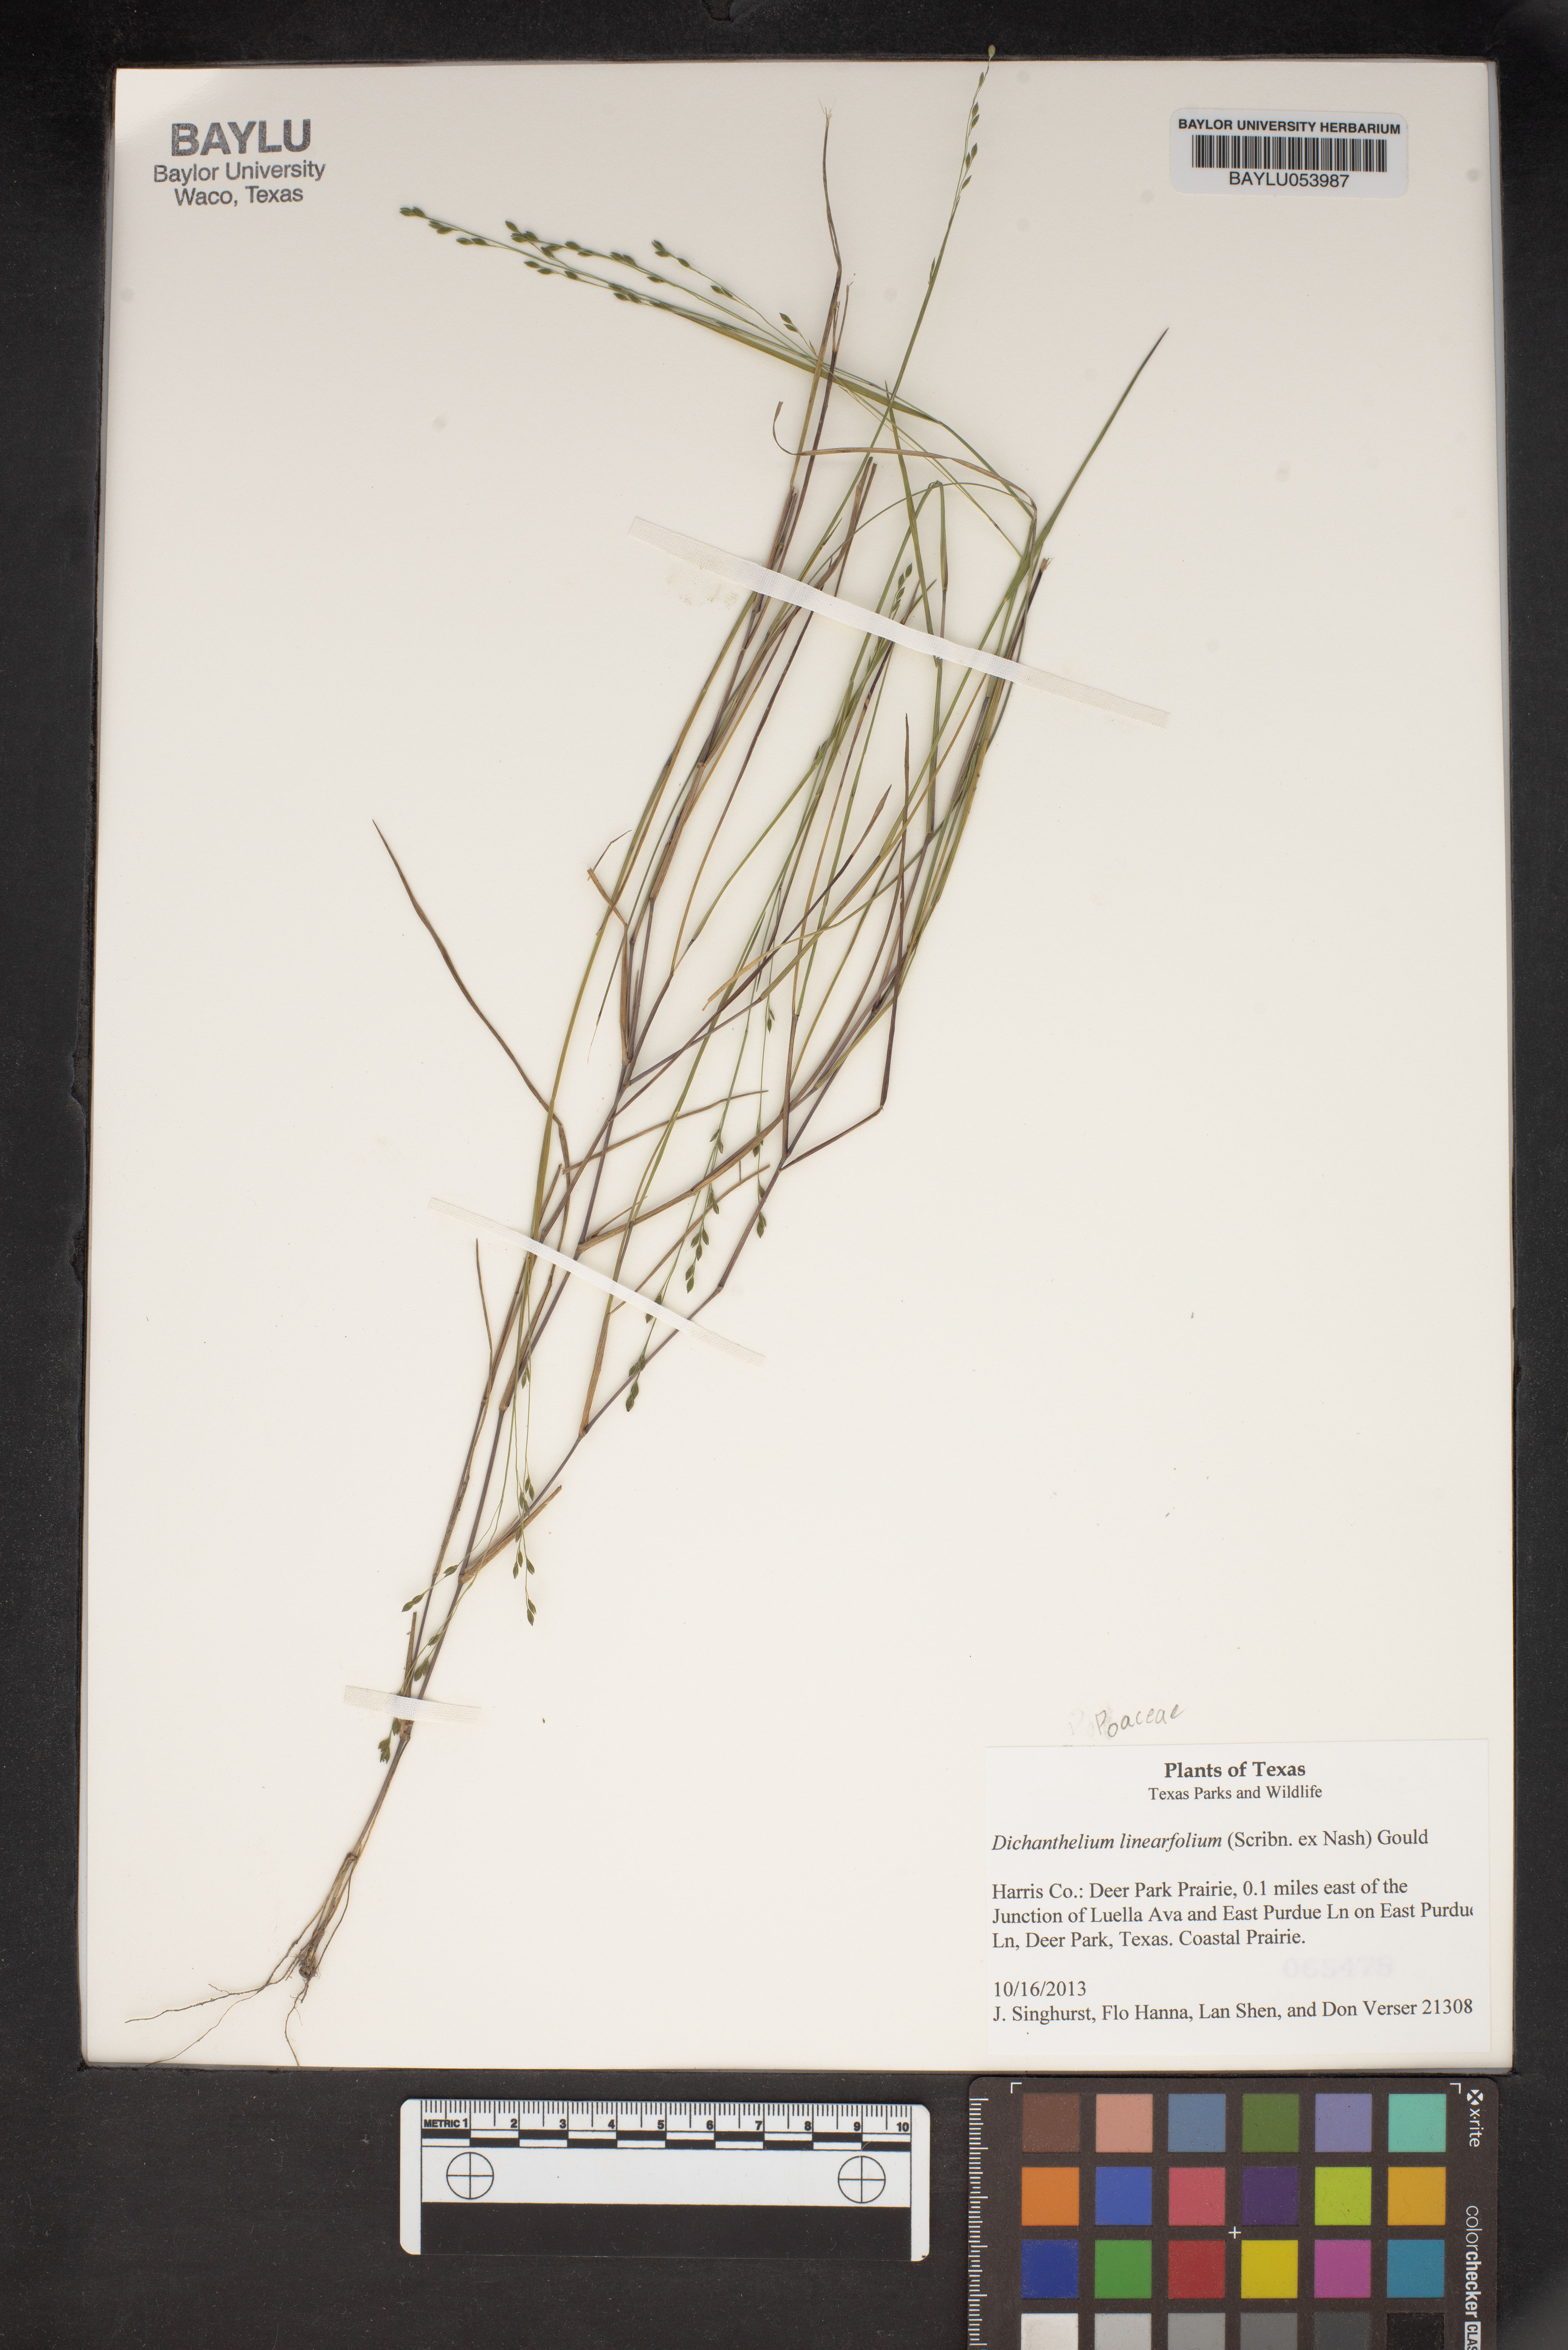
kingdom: Plantae
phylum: Tracheophyta
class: Liliopsida
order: Poales
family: Poaceae
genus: Dichanthelium
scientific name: Dichanthelium linearifolium
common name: Linear-leaved panicgrass
